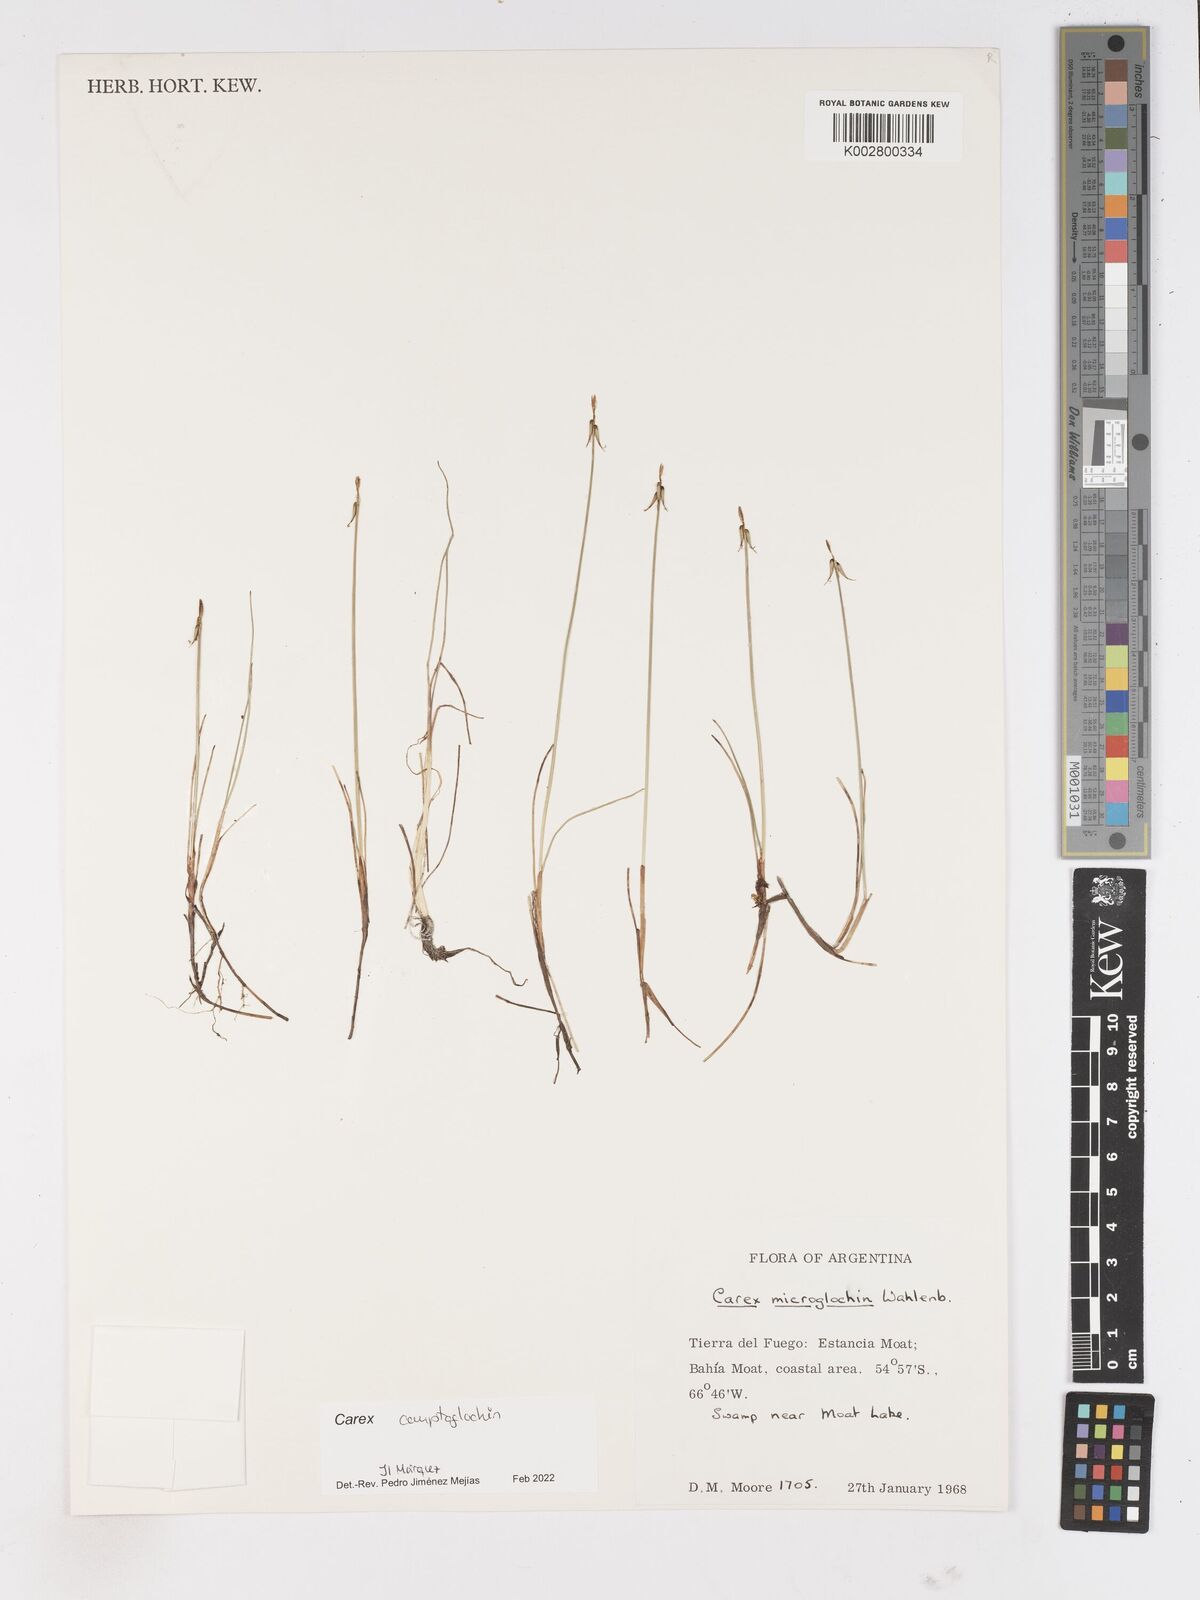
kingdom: Plantae
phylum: Tracheophyta
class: Liliopsida
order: Poales
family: Cyperaceae
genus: Carex
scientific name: Carex camptoglochin
